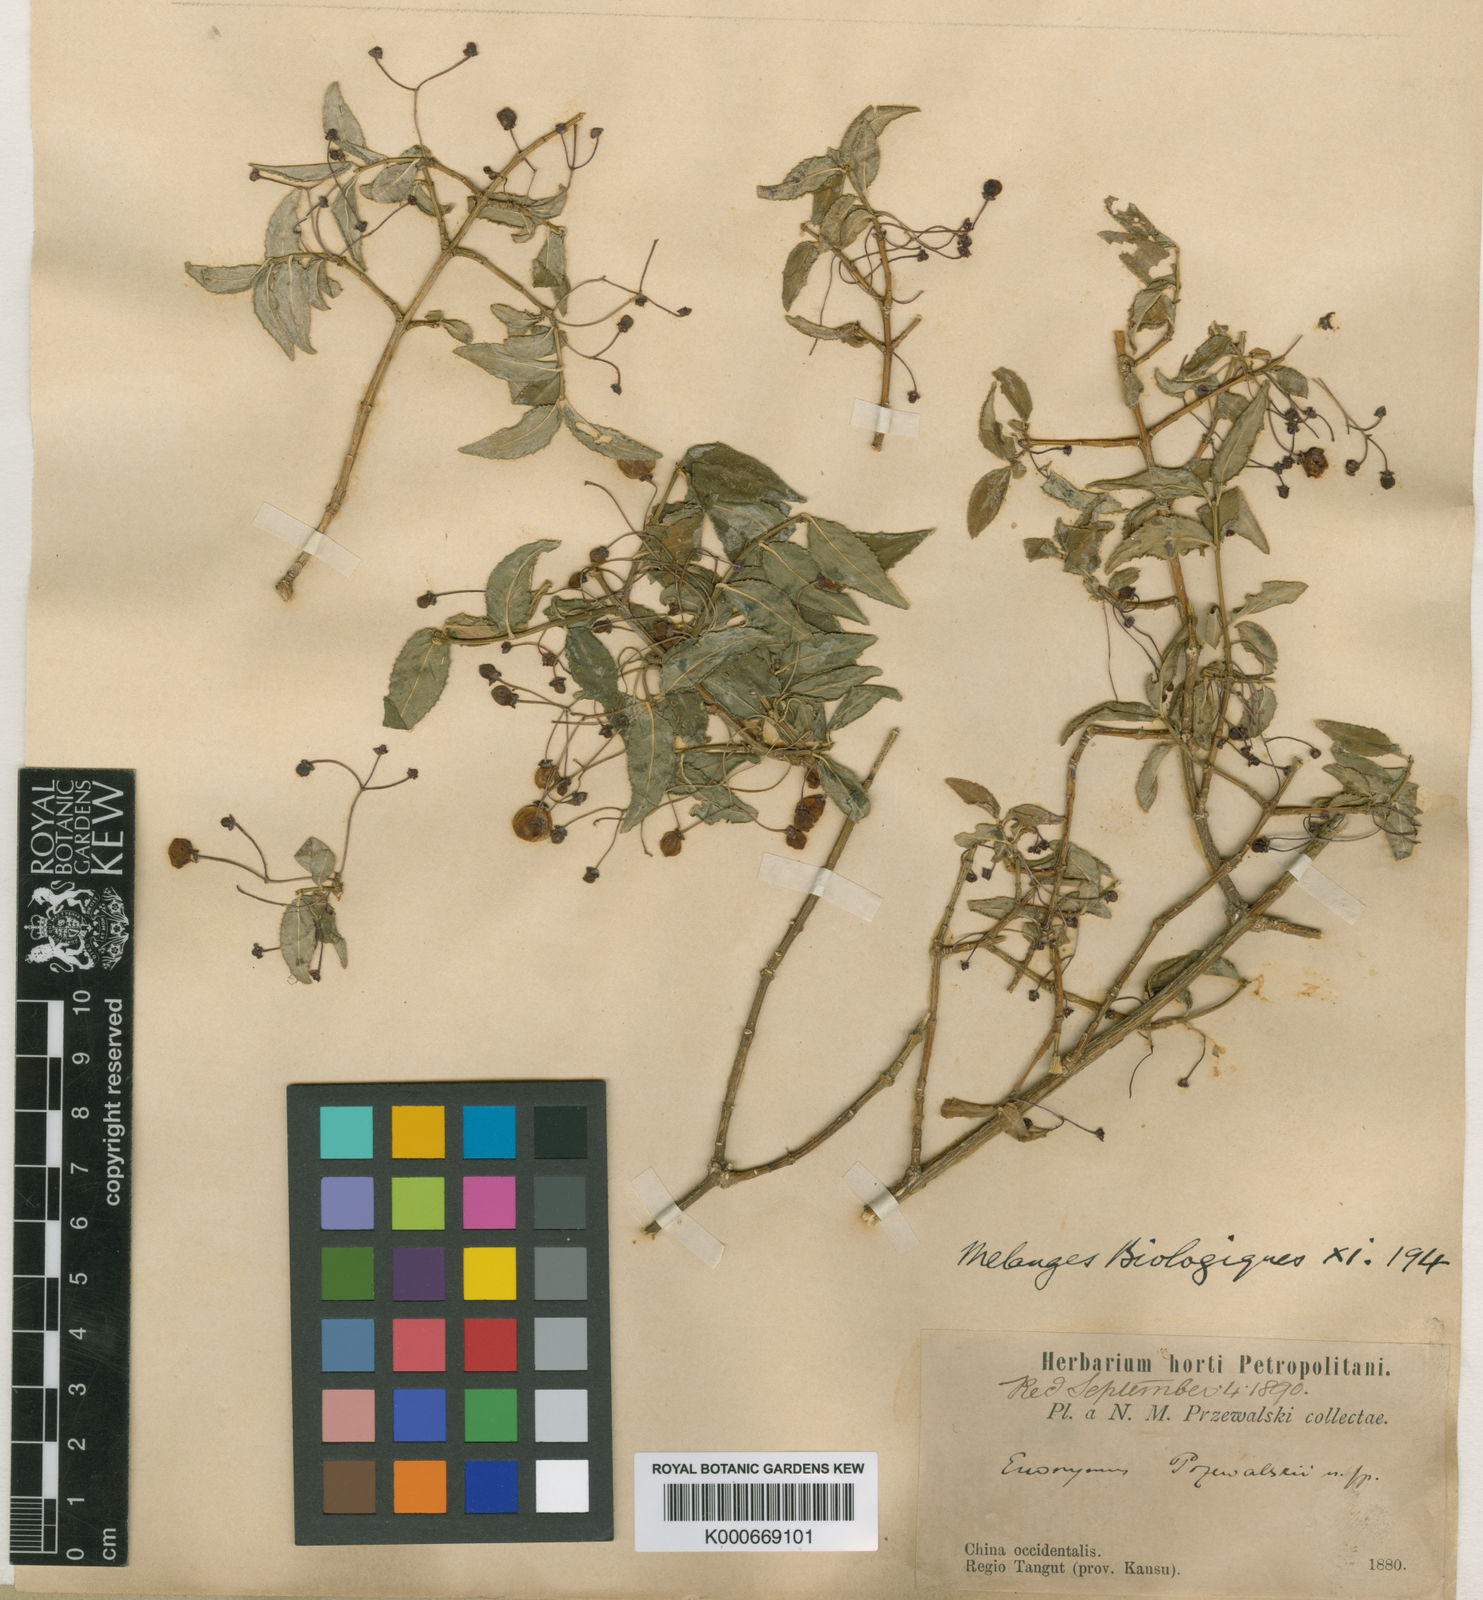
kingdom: Plantae
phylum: Tracheophyta
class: Magnoliopsida
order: Celastrales
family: Celastraceae
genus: Euonymus
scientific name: Euonymus semenovii
